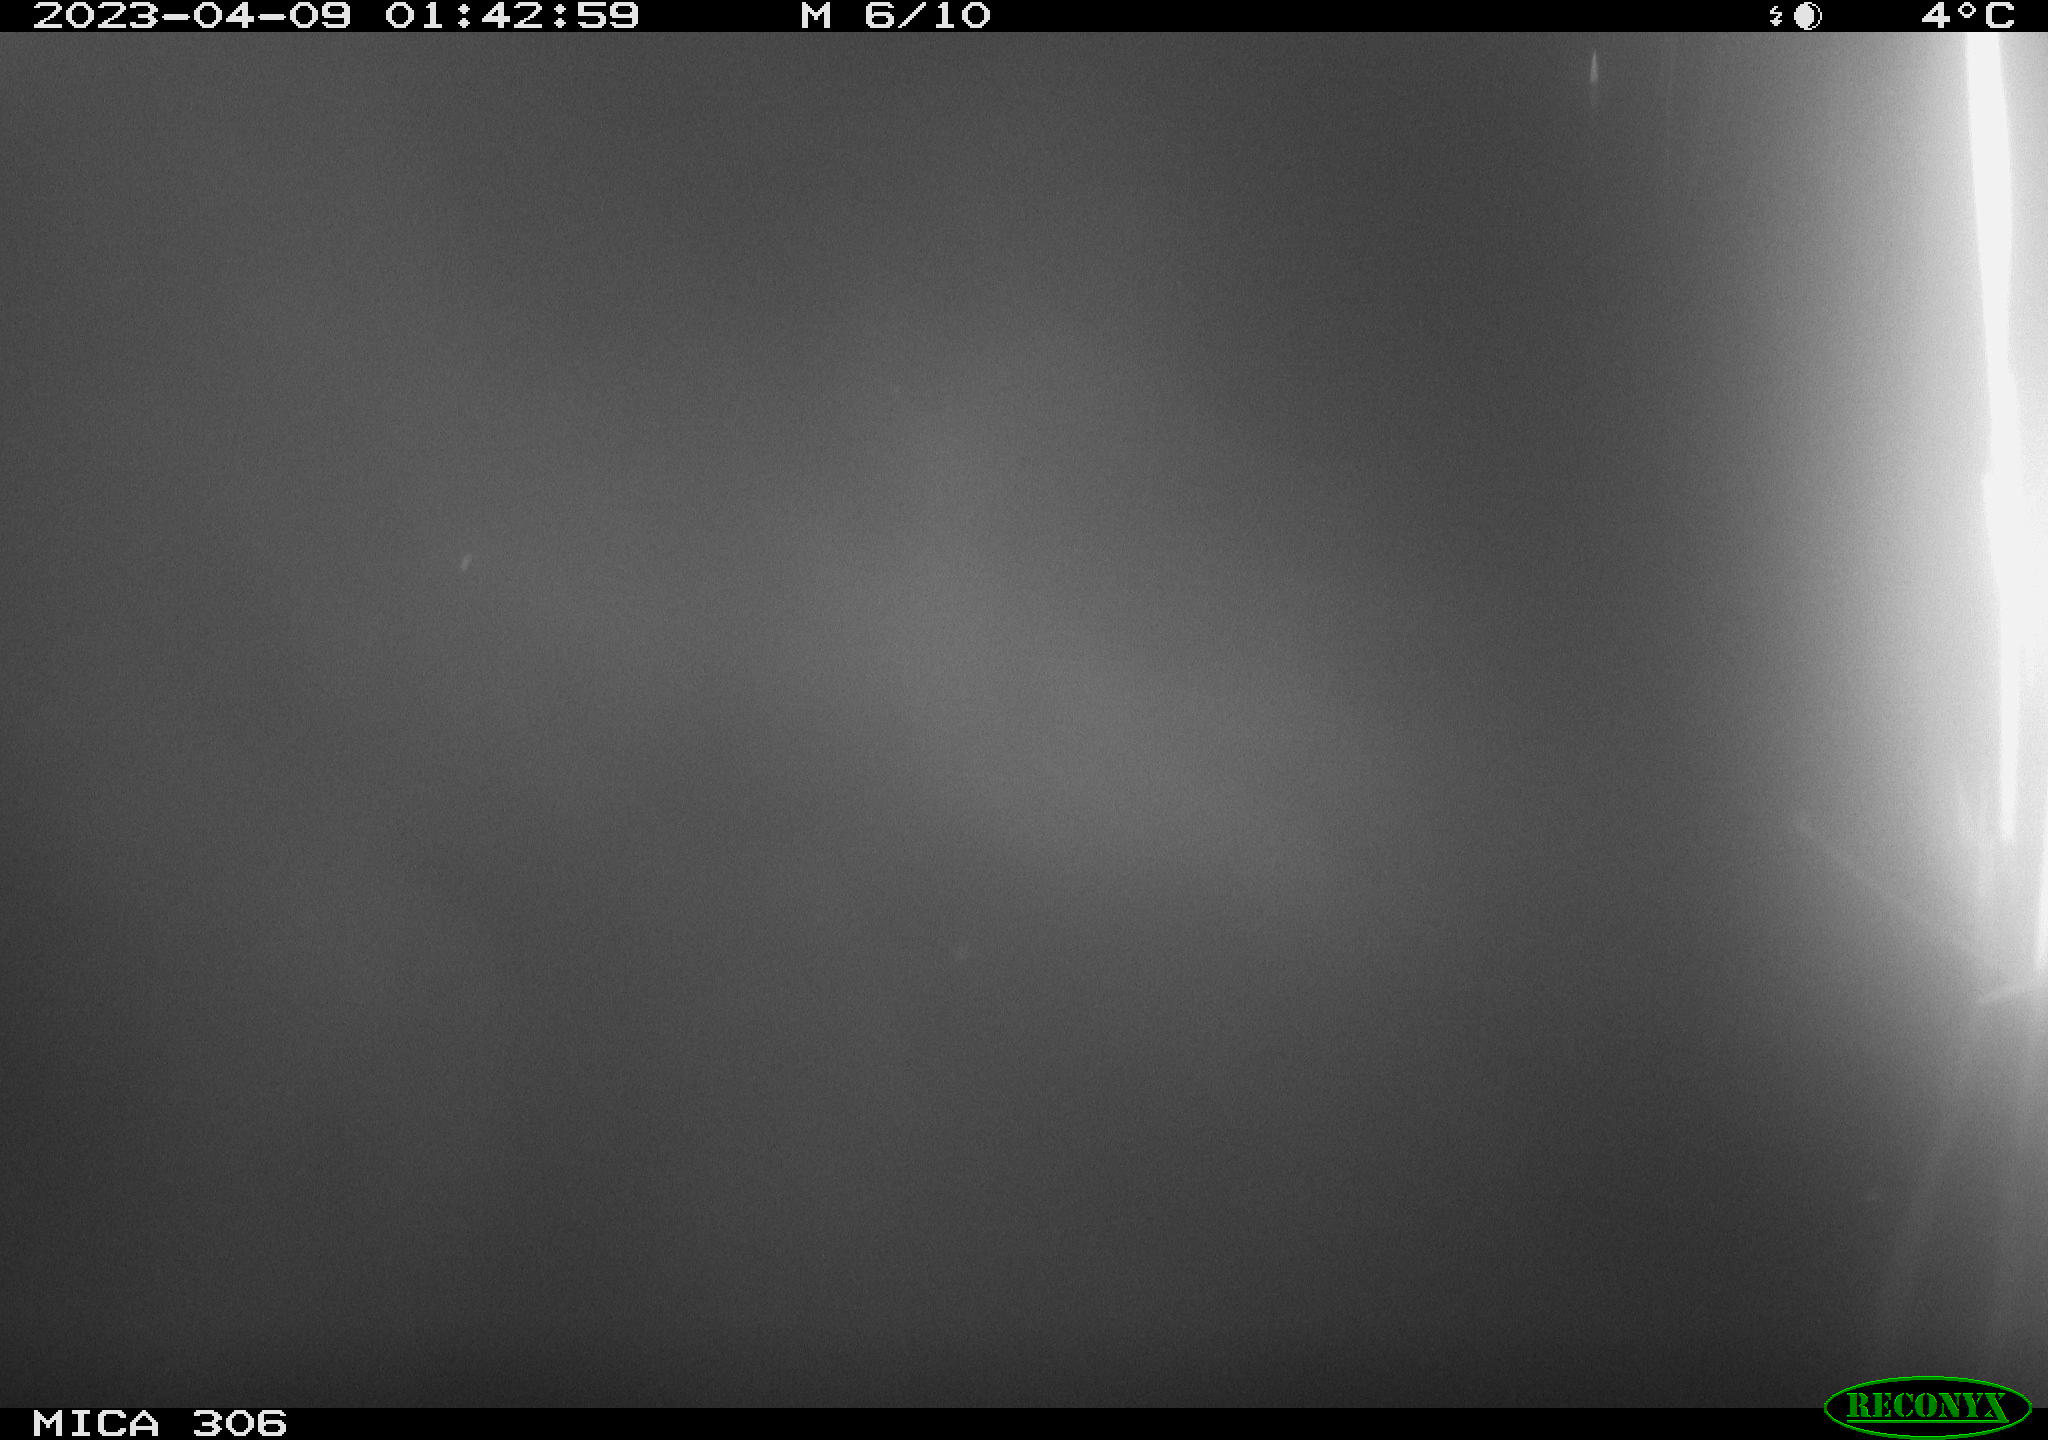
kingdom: Animalia
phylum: Chordata
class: Mammalia
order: Rodentia
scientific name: Rodentia
